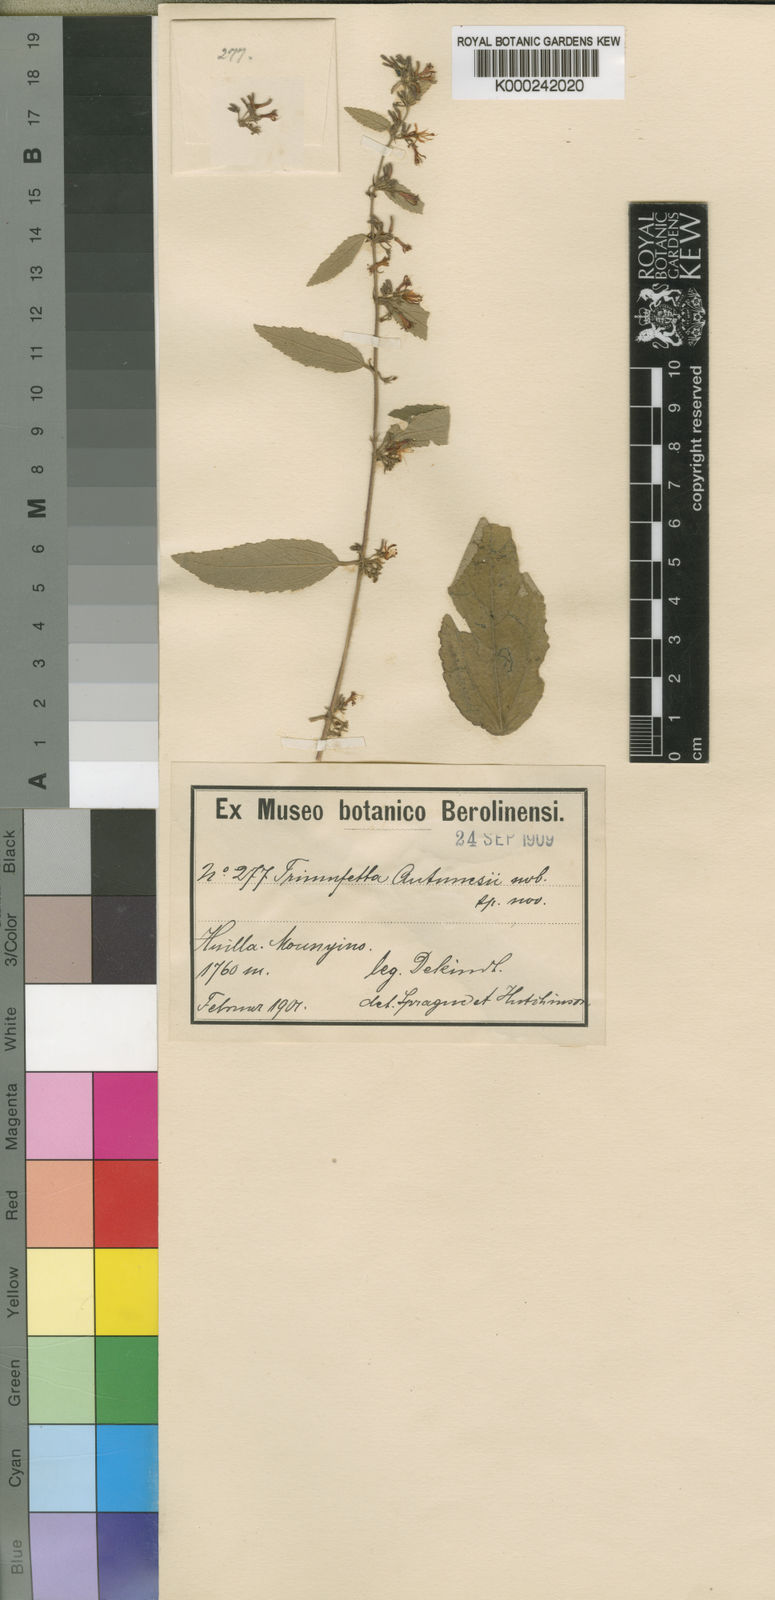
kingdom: Plantae
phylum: Tracheophyta
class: Magnoliopsida
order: Malvales
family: Malvaceae
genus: Triumfetta
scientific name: Triumfetta antunesii
